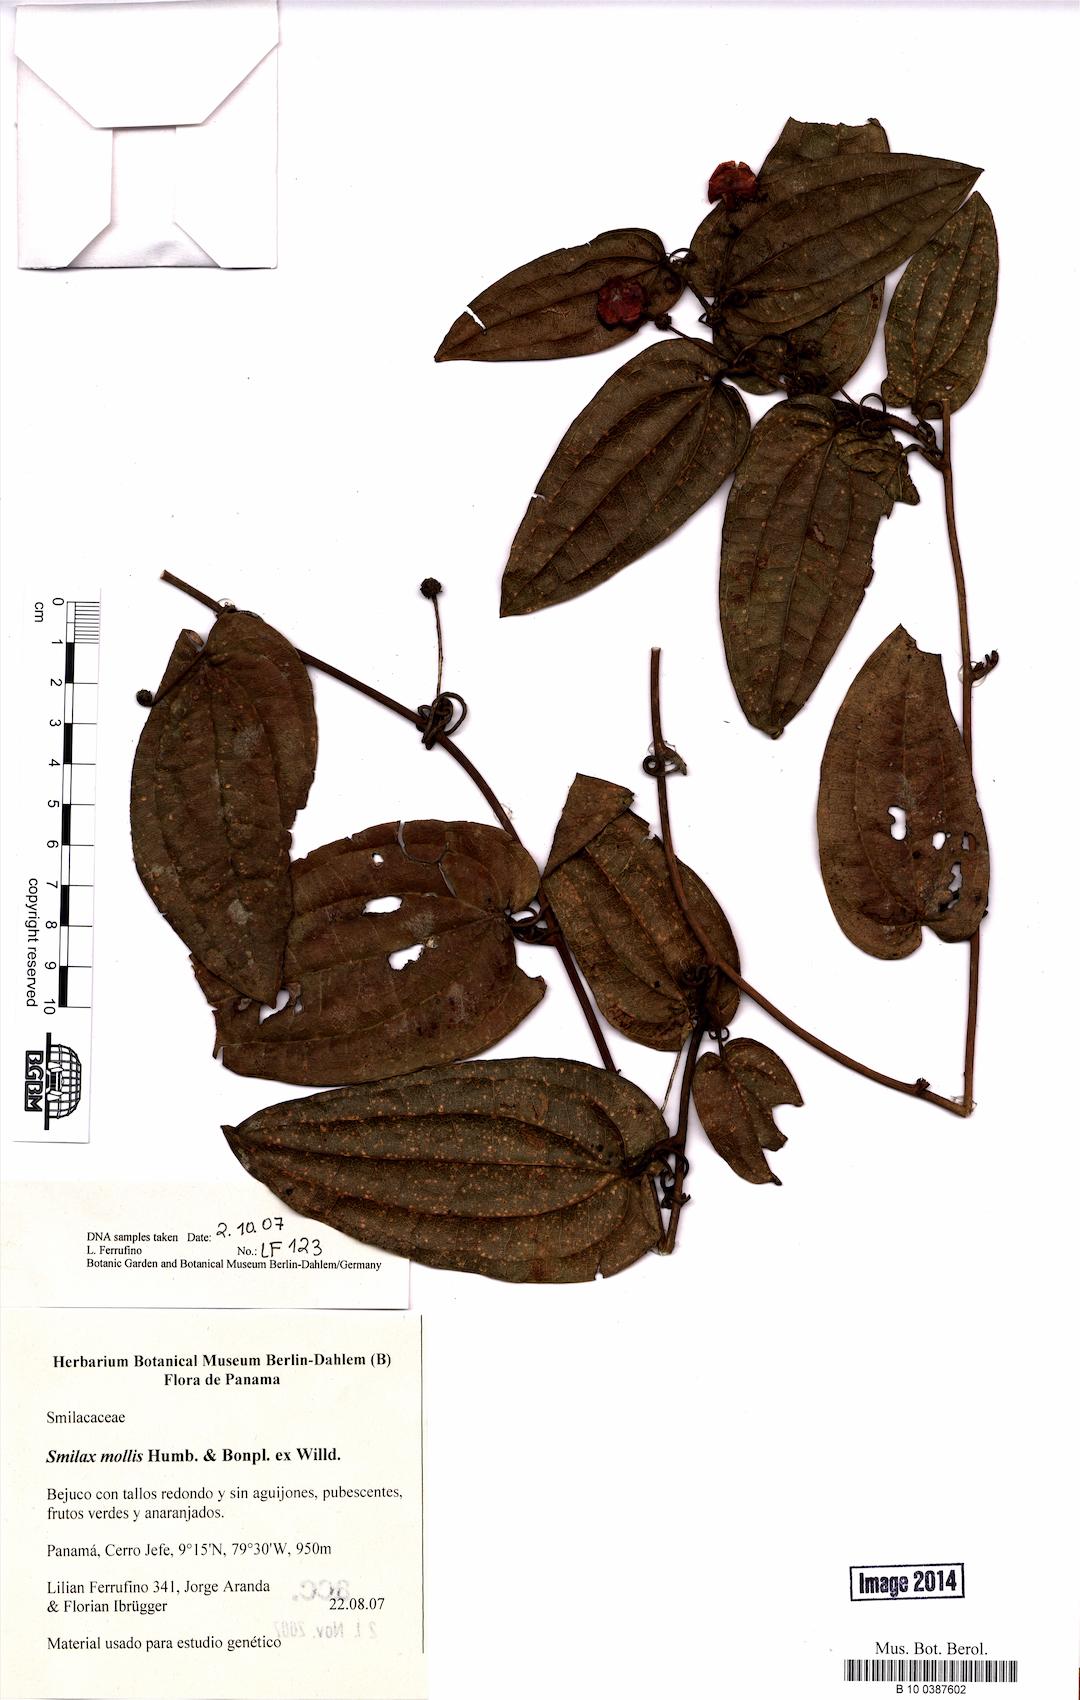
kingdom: Plantae
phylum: Tracheophyta
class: Liliopsida
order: Liliales
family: Smilacaceae
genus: Smilax
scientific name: Smilax mollis
